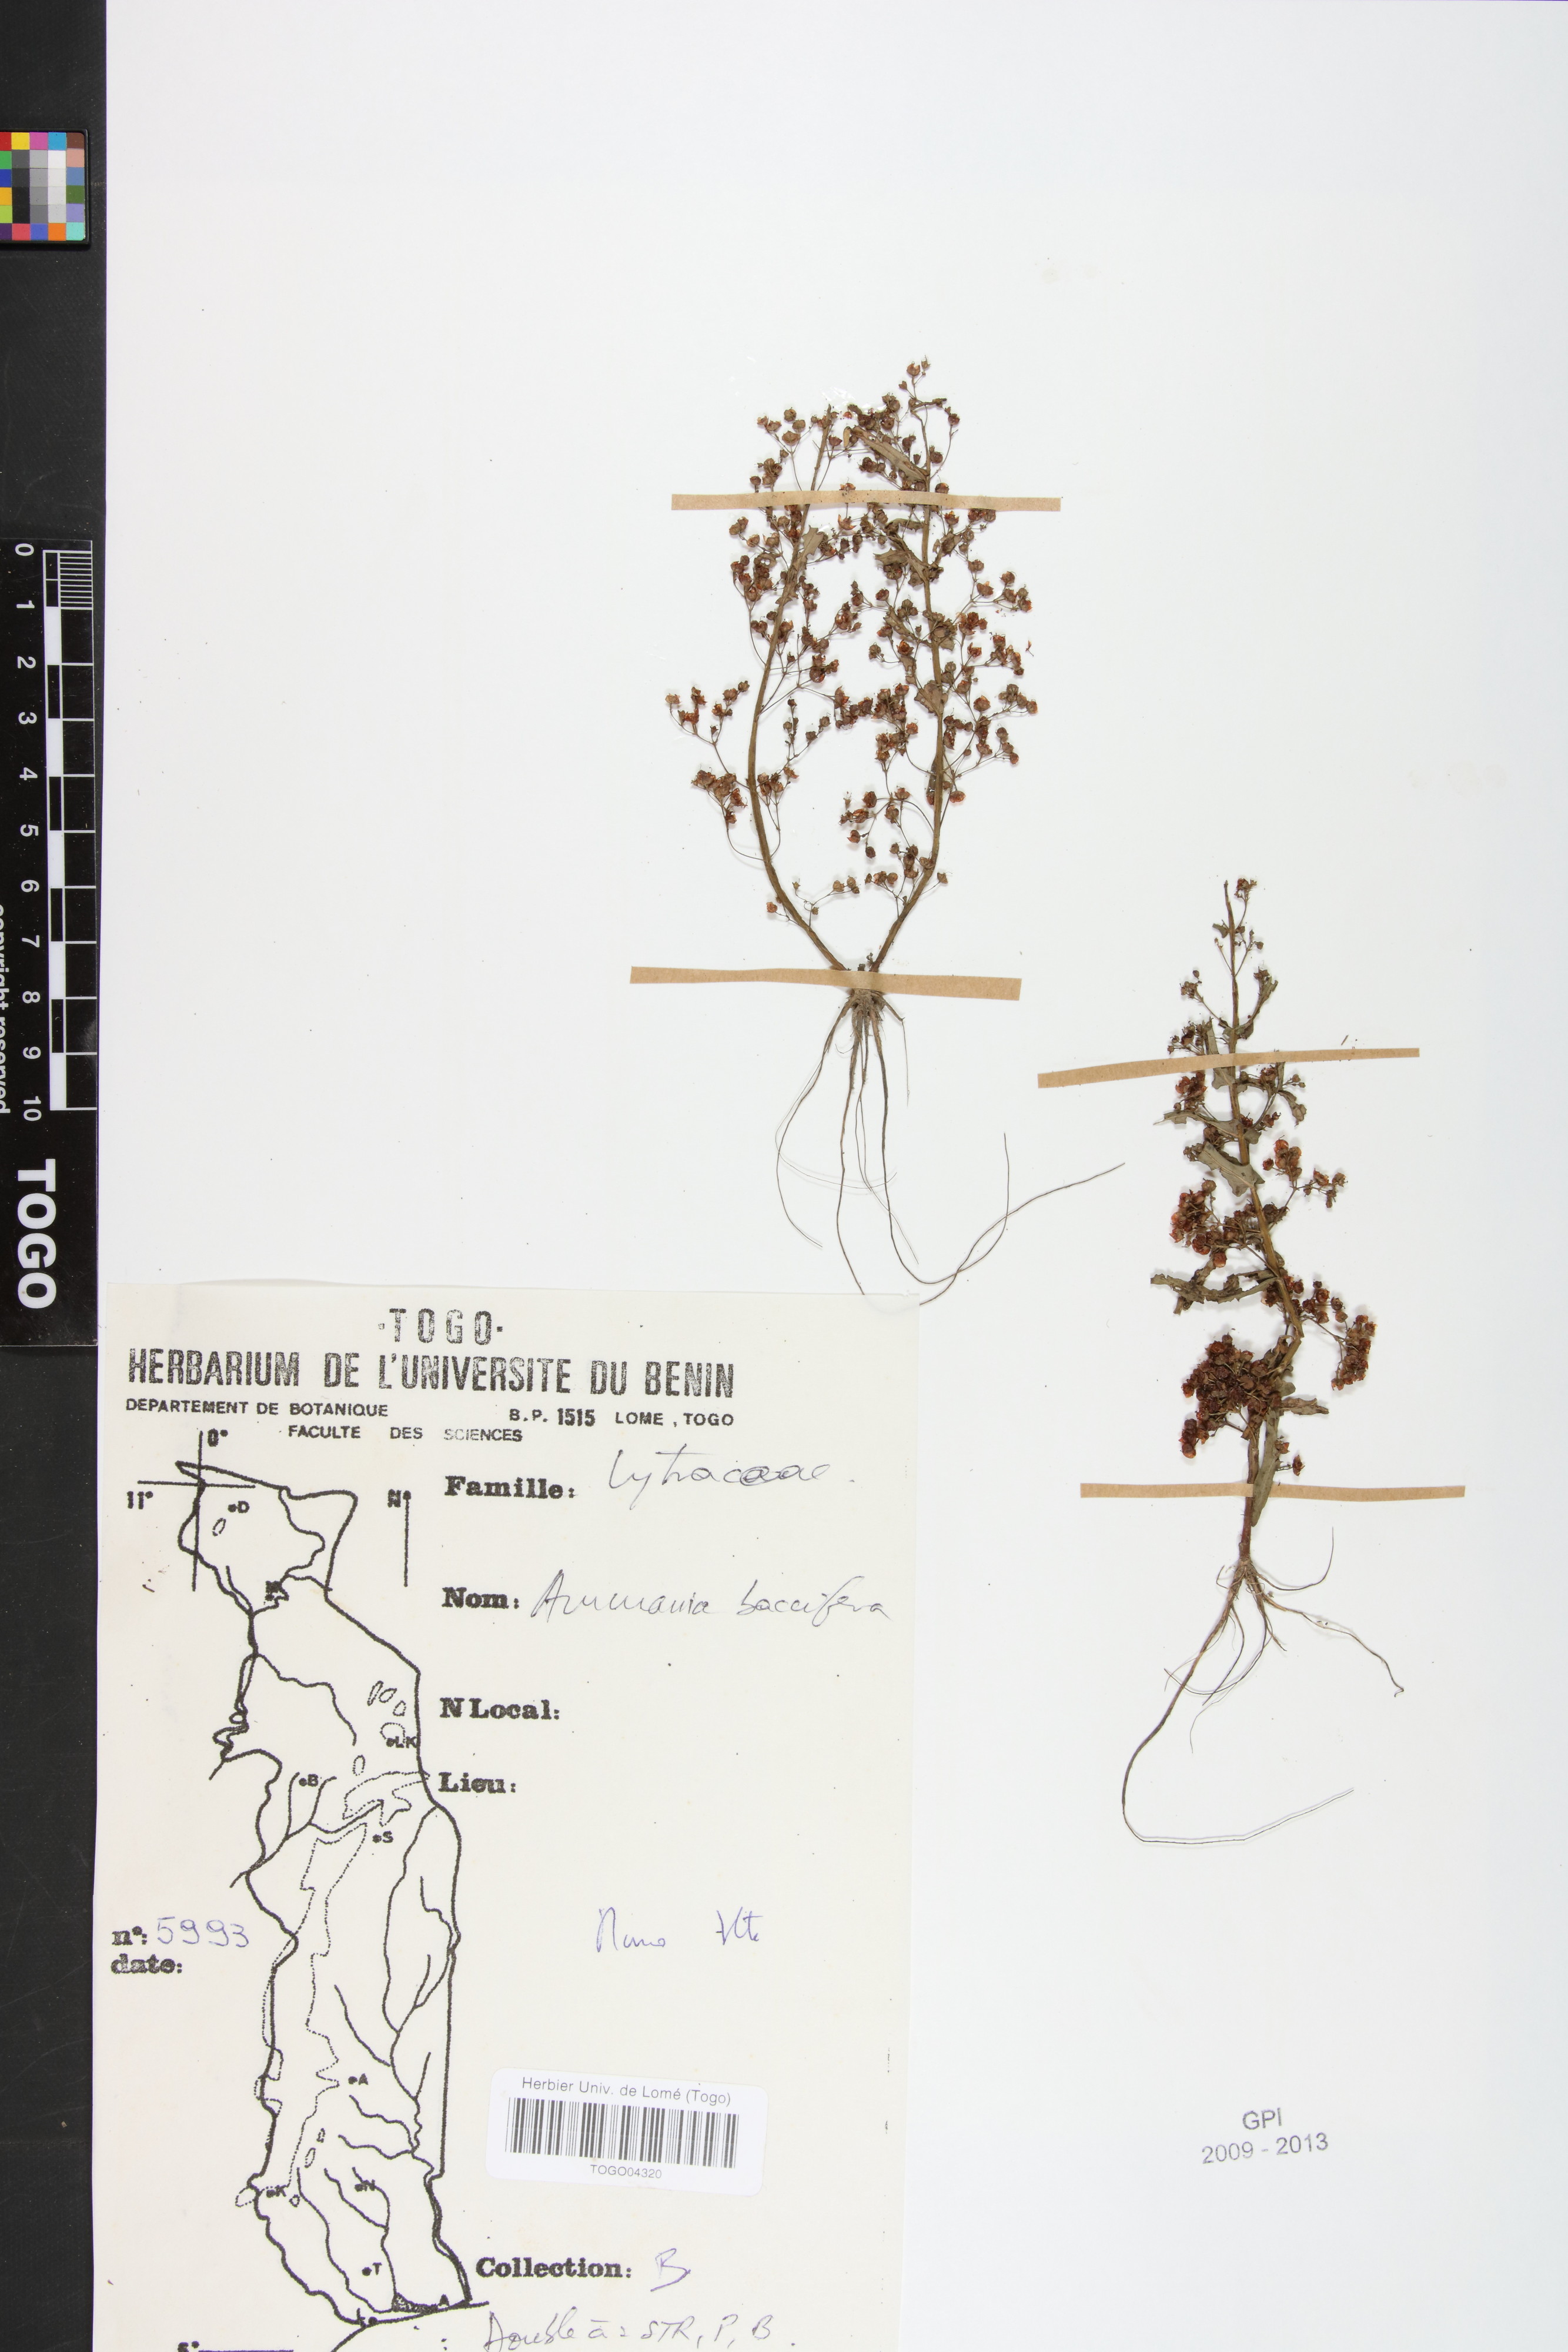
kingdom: Plantae
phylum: Tracheophyta
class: Magnoliopsida
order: Myrtales
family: Lythraceae
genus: Ammannia
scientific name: Ammannia baccifera
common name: Blistering ammania
